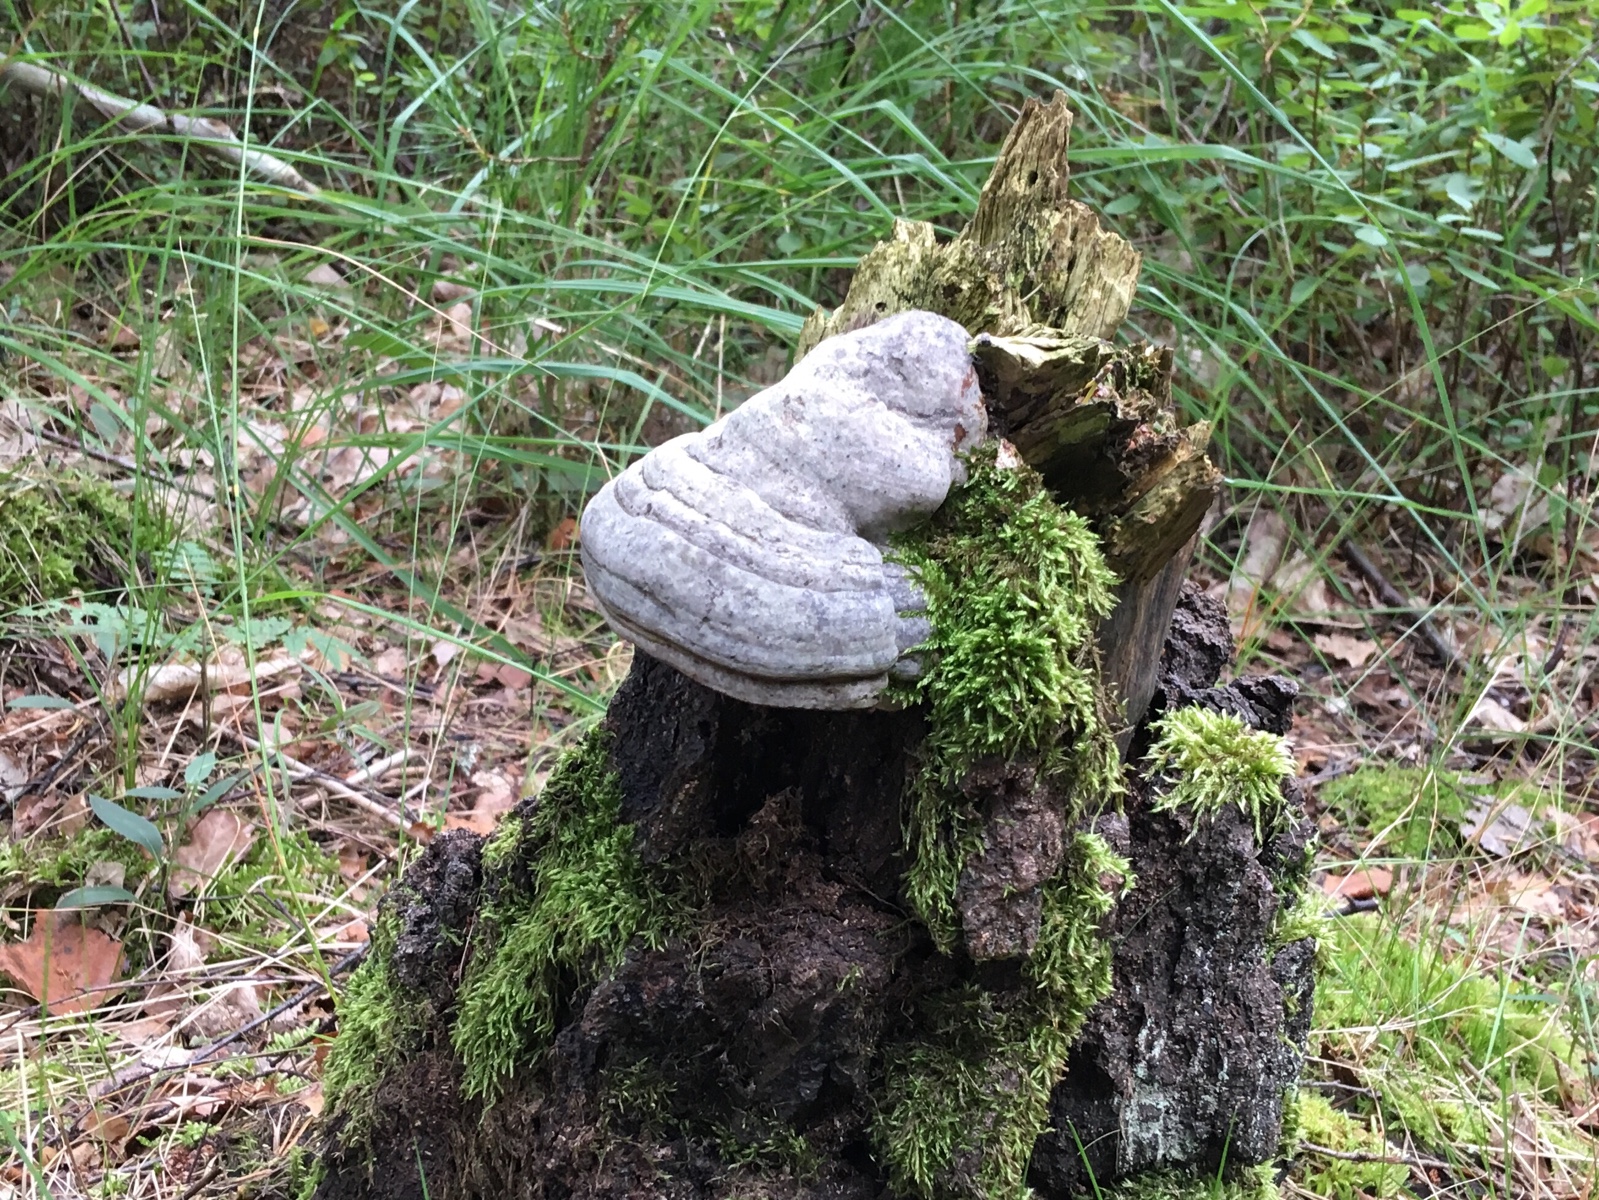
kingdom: Fungi
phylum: Basidiomycota
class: Agaricomycetes
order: Polyporales
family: Polyporaceae
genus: Fomes
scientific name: Fomes fomentarius
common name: tøndersvamp
